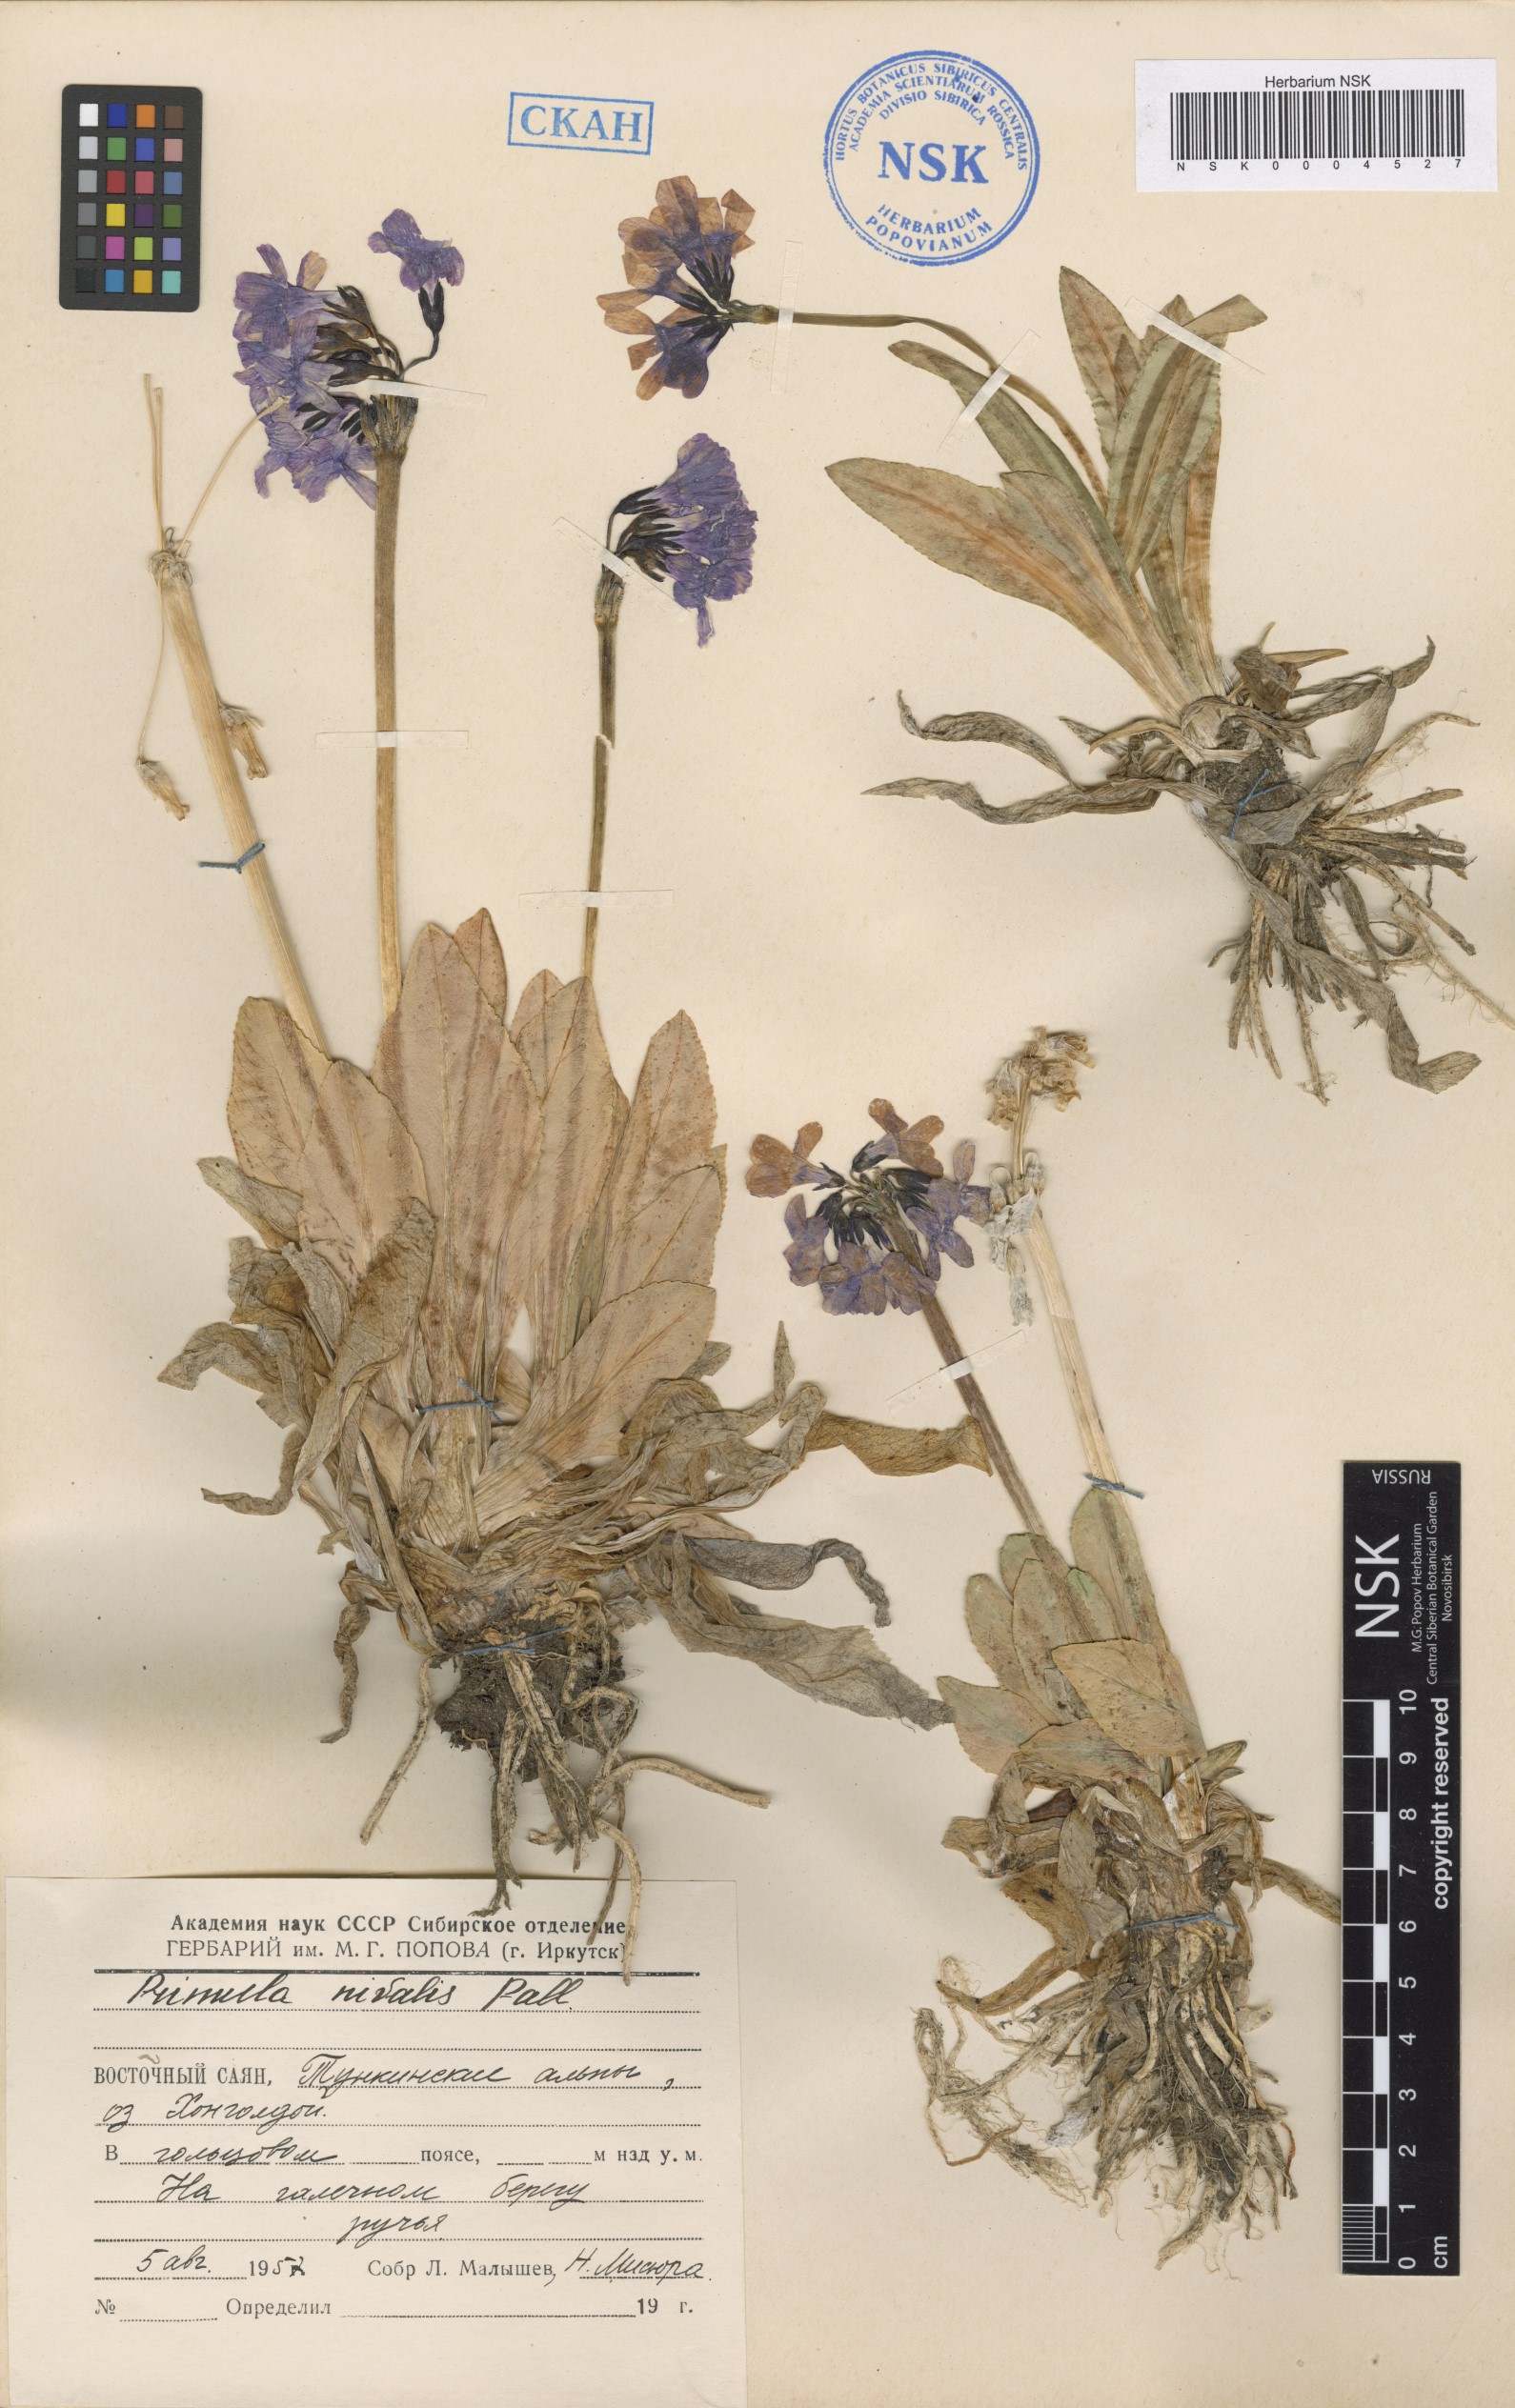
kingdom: Plantae
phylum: Tracheophyta
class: Magnoliopsida
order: Ericales
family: Primulaceae
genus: Primula
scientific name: Primula nivalis
